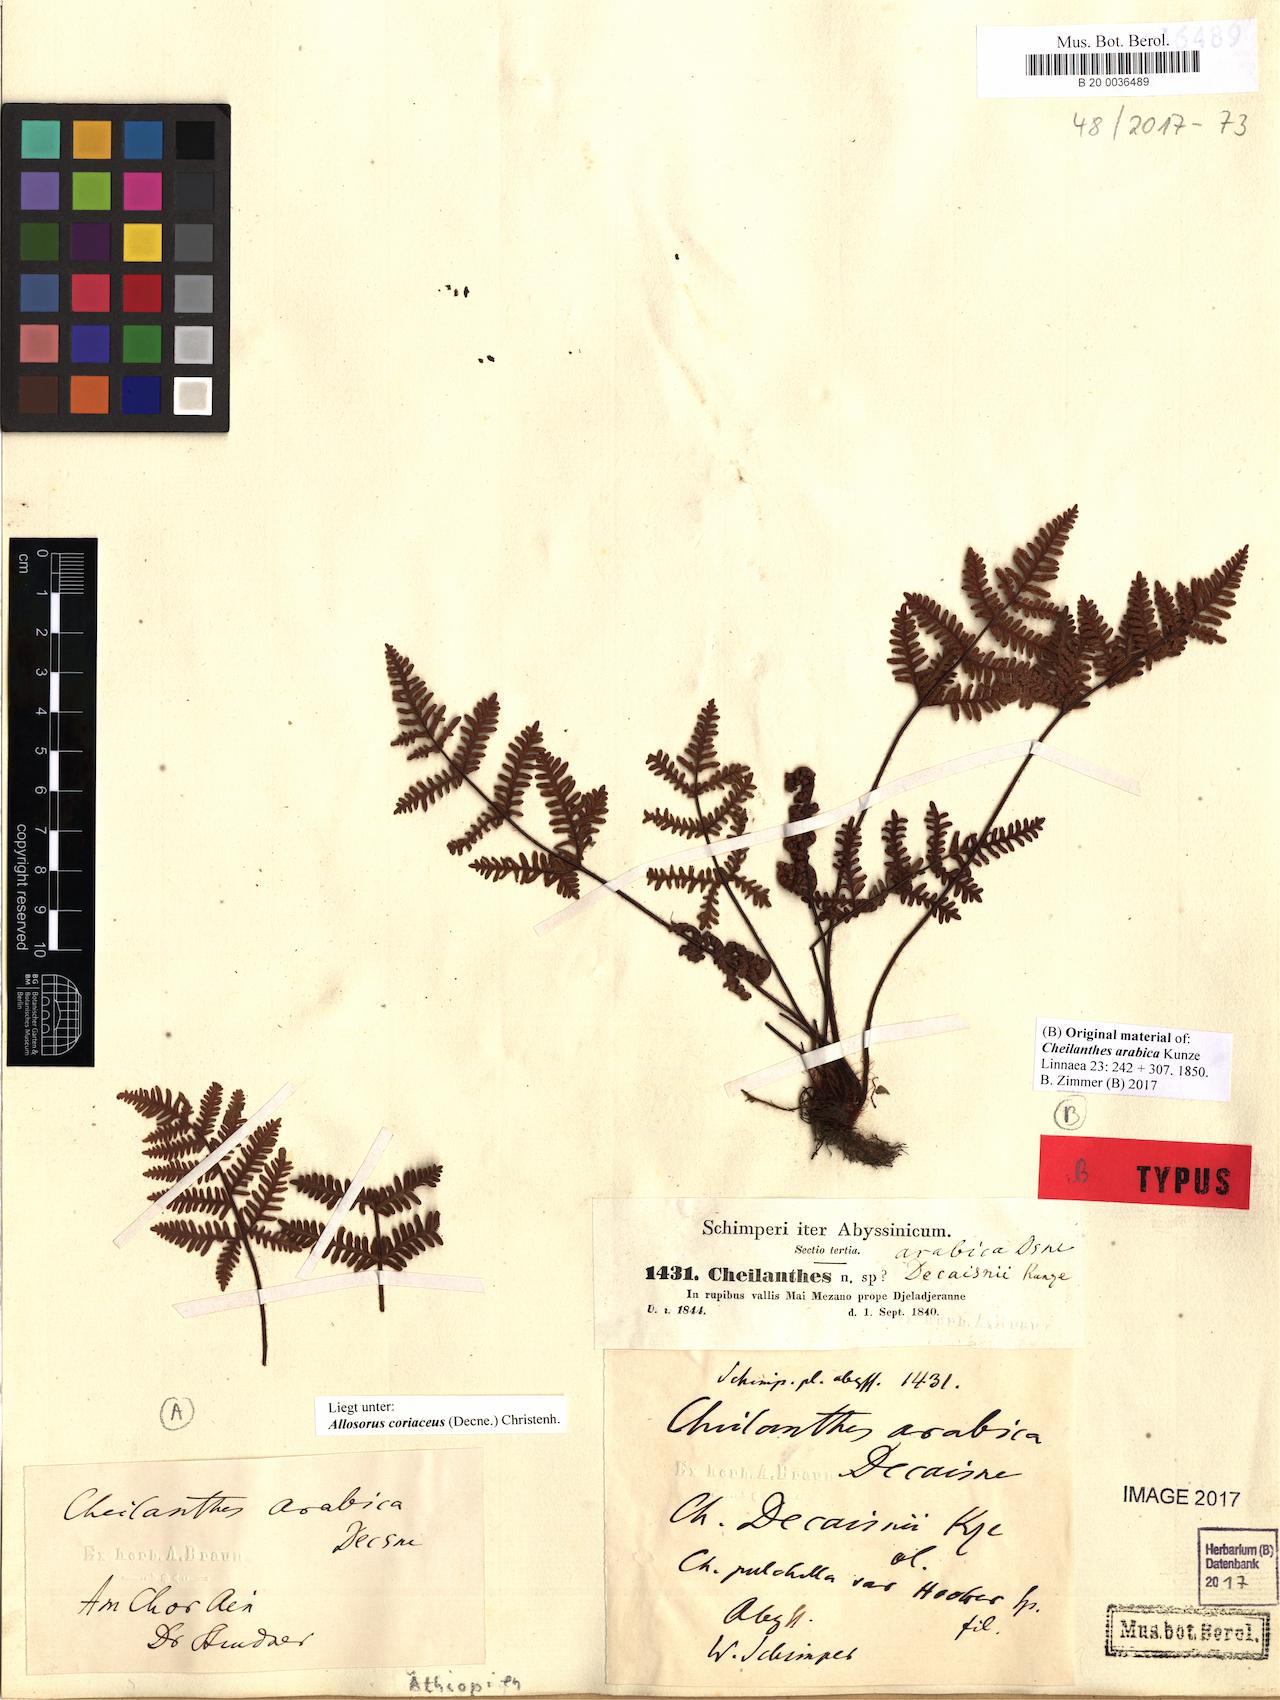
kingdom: Plantae
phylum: Tracheophyta
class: Polypodiopsida
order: Polypodiales
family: Pteridaceae
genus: Oeosporangium
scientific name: Oeosporangium coriaceum
